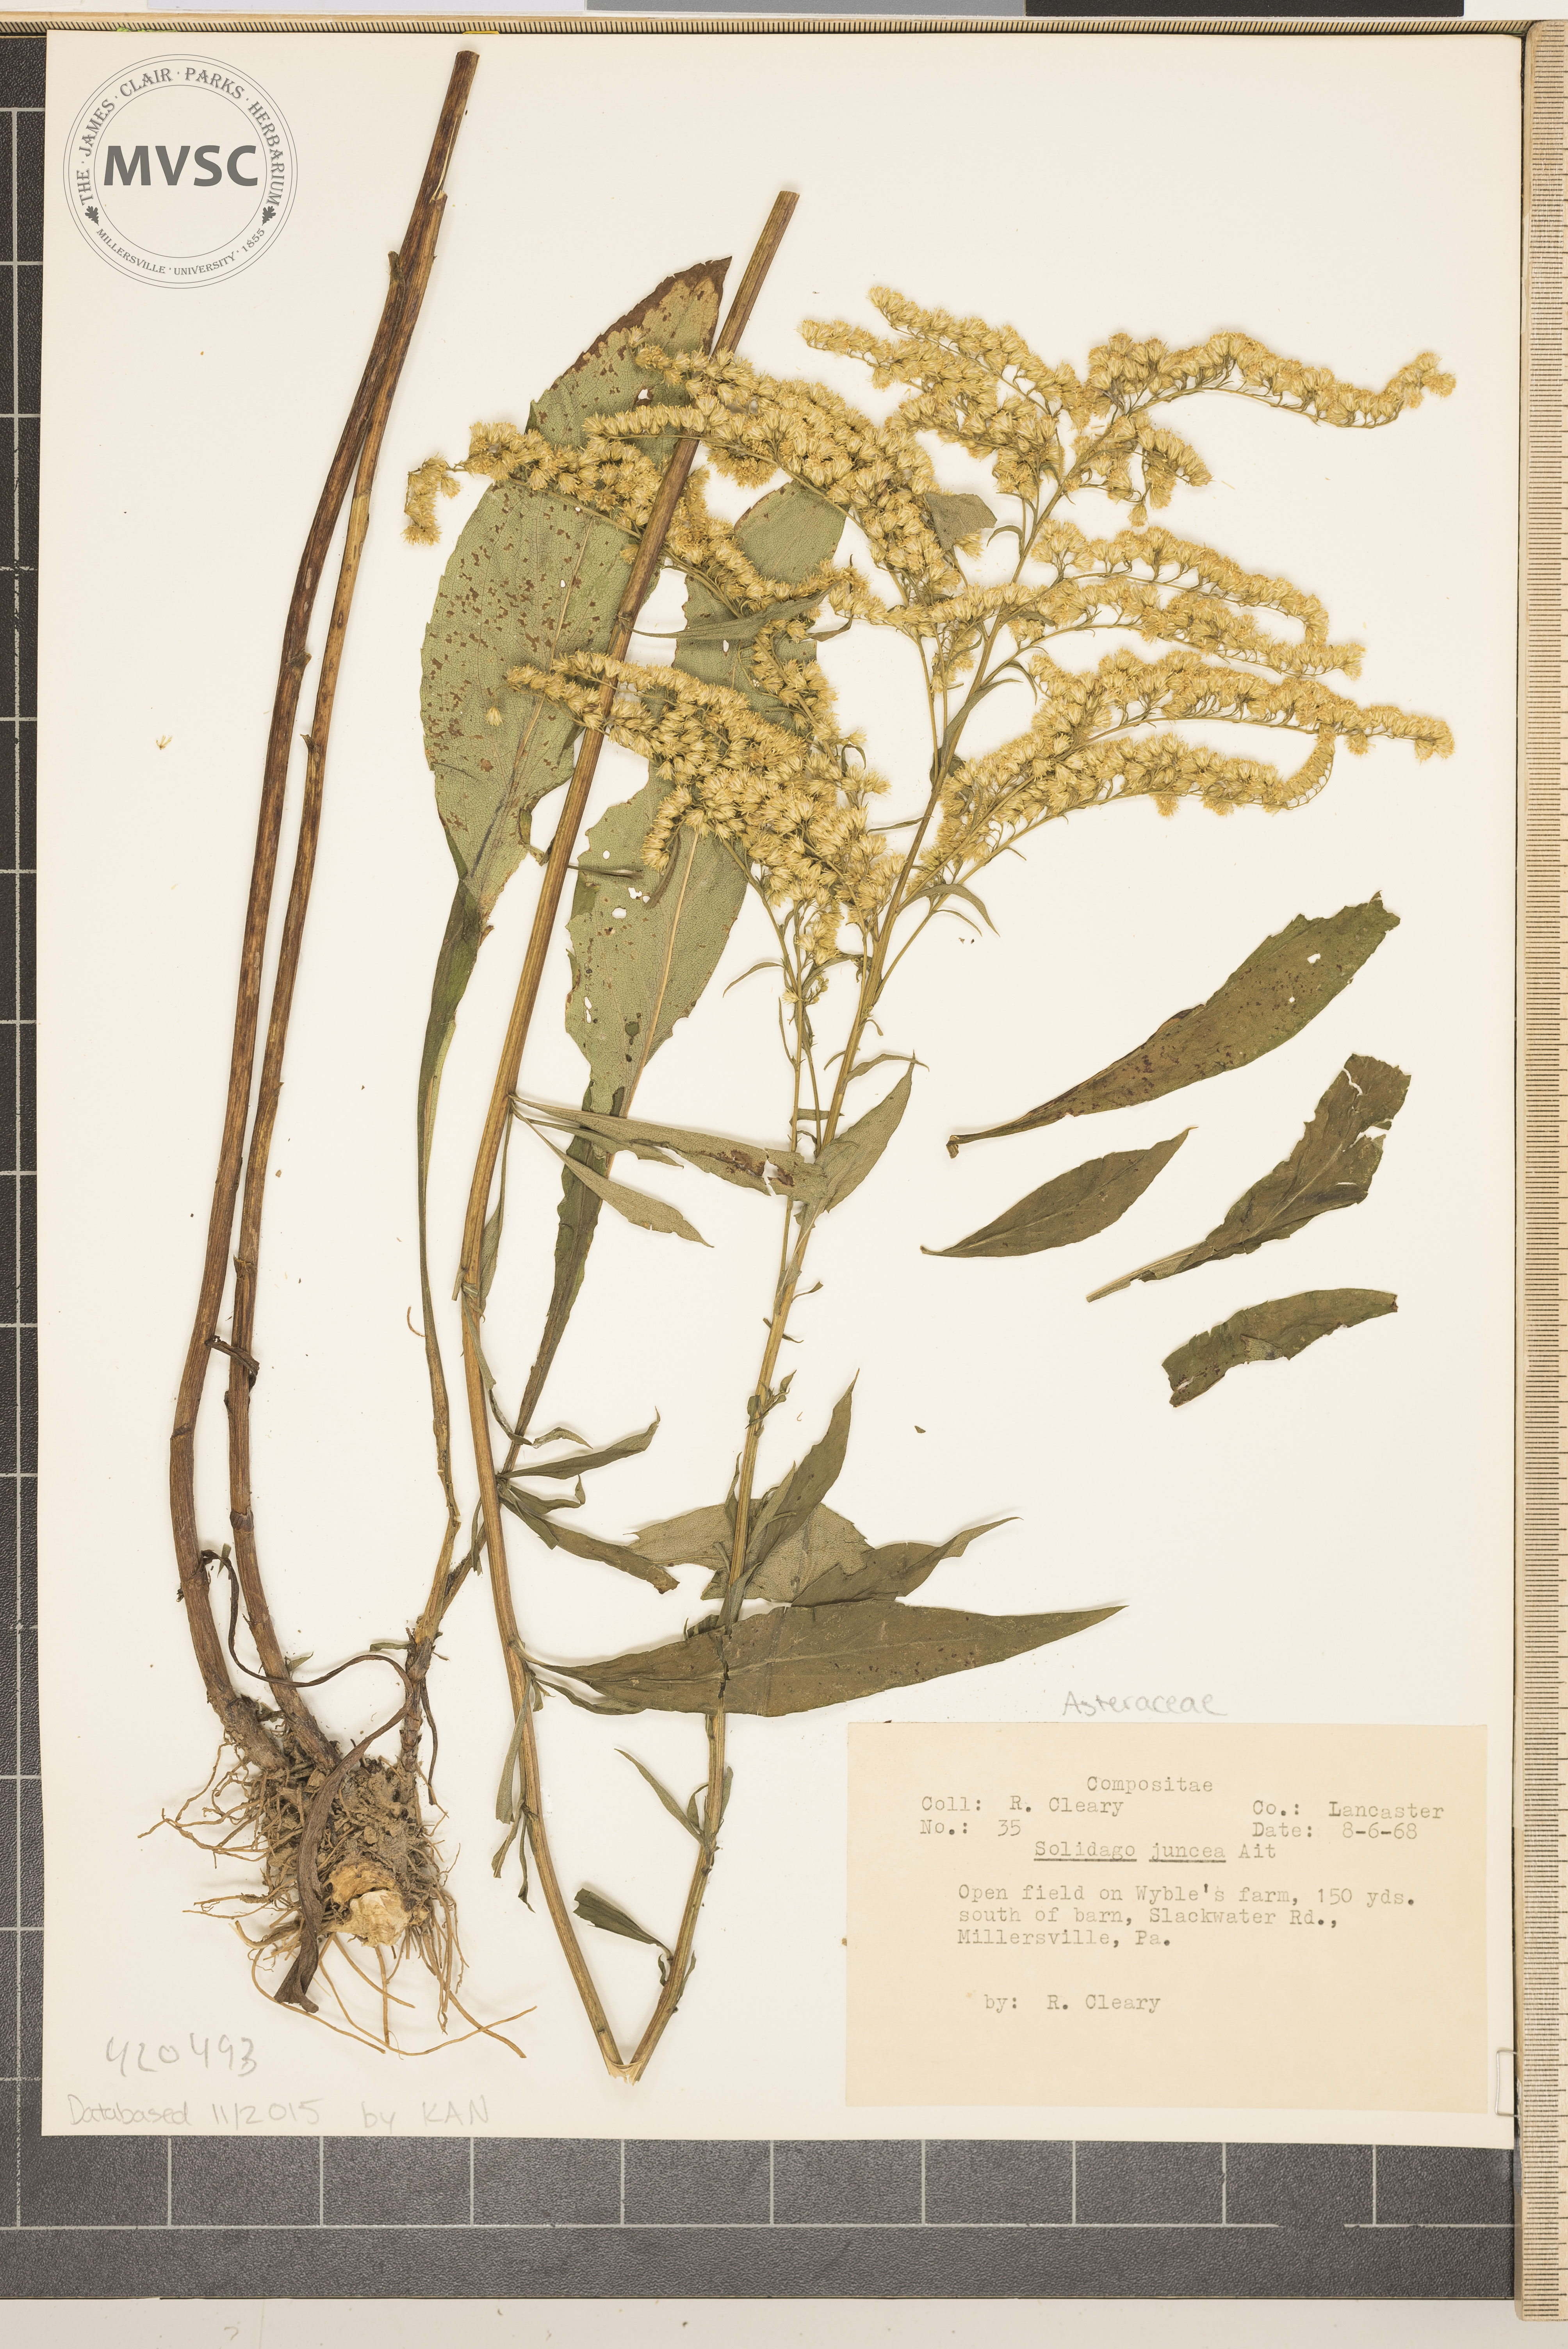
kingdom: Plantae
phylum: Tracheophyta
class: Magnoliopsida
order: Asterales
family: Asteraceae
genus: Solidago
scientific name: Solidago juncea
